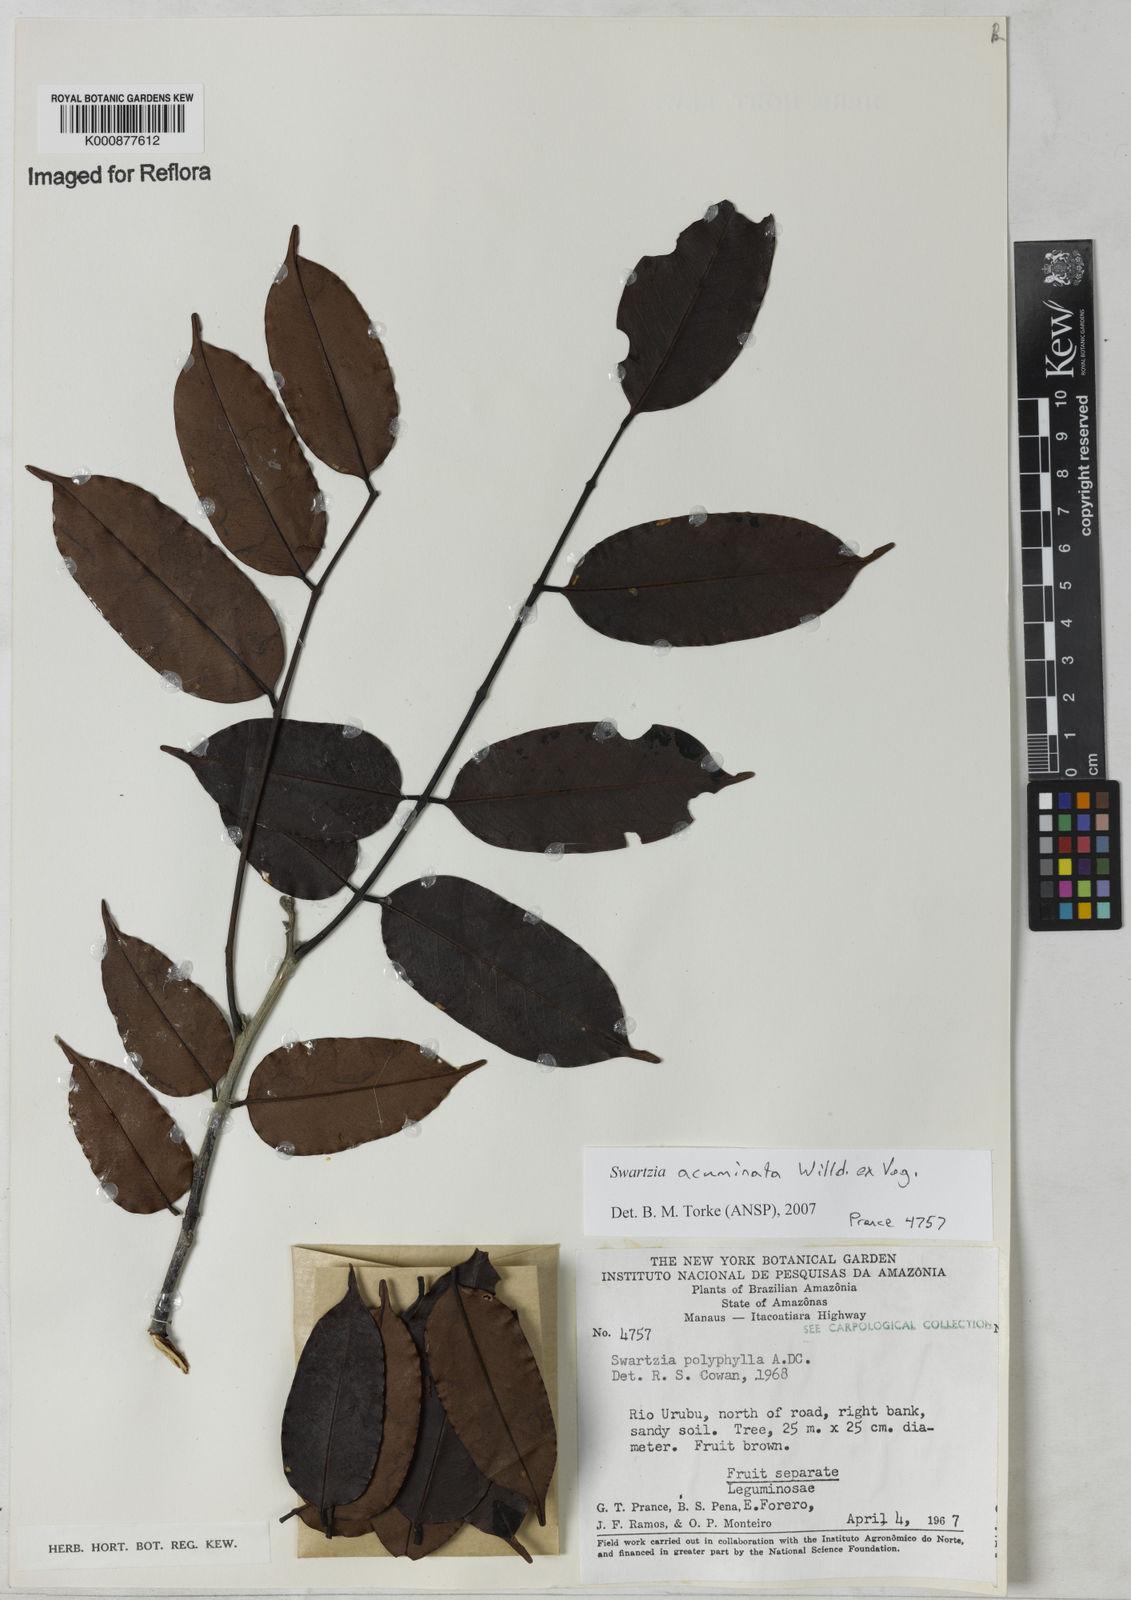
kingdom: Plantae
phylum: Tracheophyta
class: Magnoliopsida
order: Fabales
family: Fabaceae
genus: Swartzia
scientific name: Swartzia acuminata
